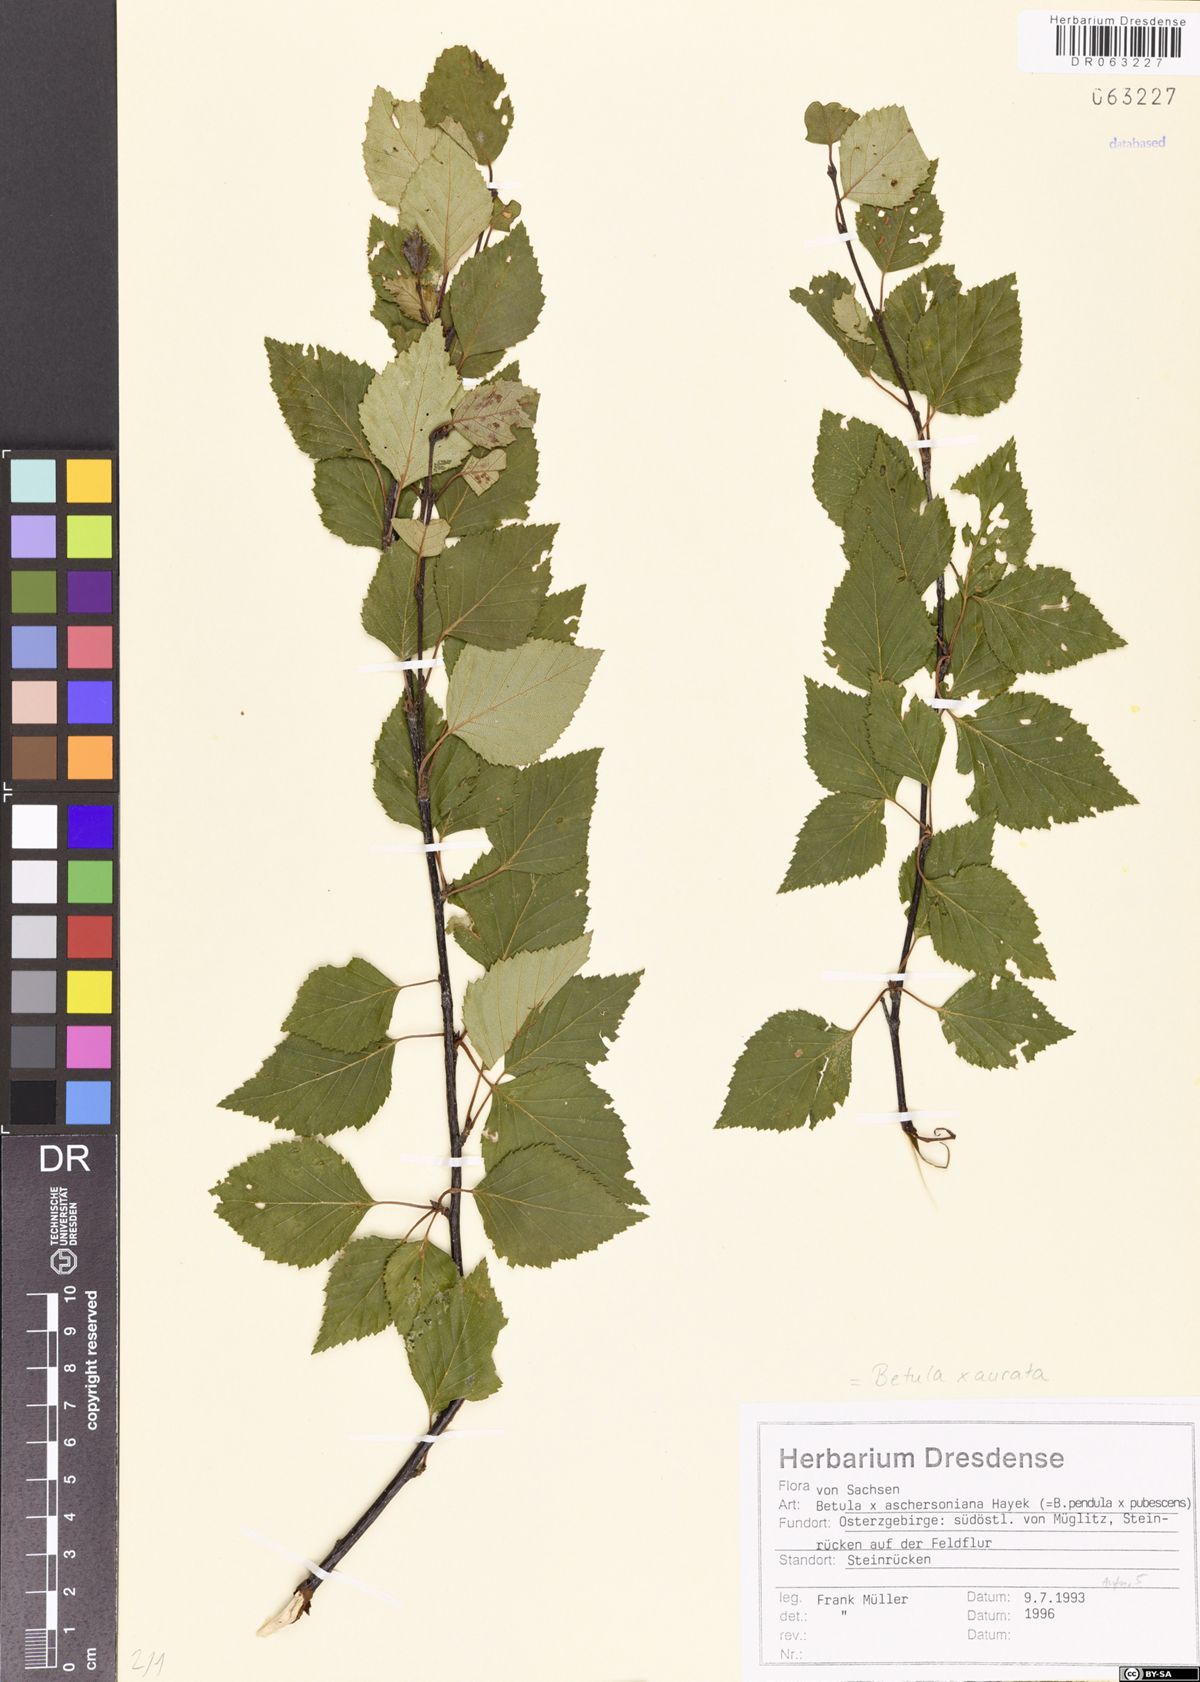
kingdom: Plantae
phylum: Tracheophyta
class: Magnoliopsida
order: Fagales
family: Betulaceae
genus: Betula
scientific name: Betula aurata
